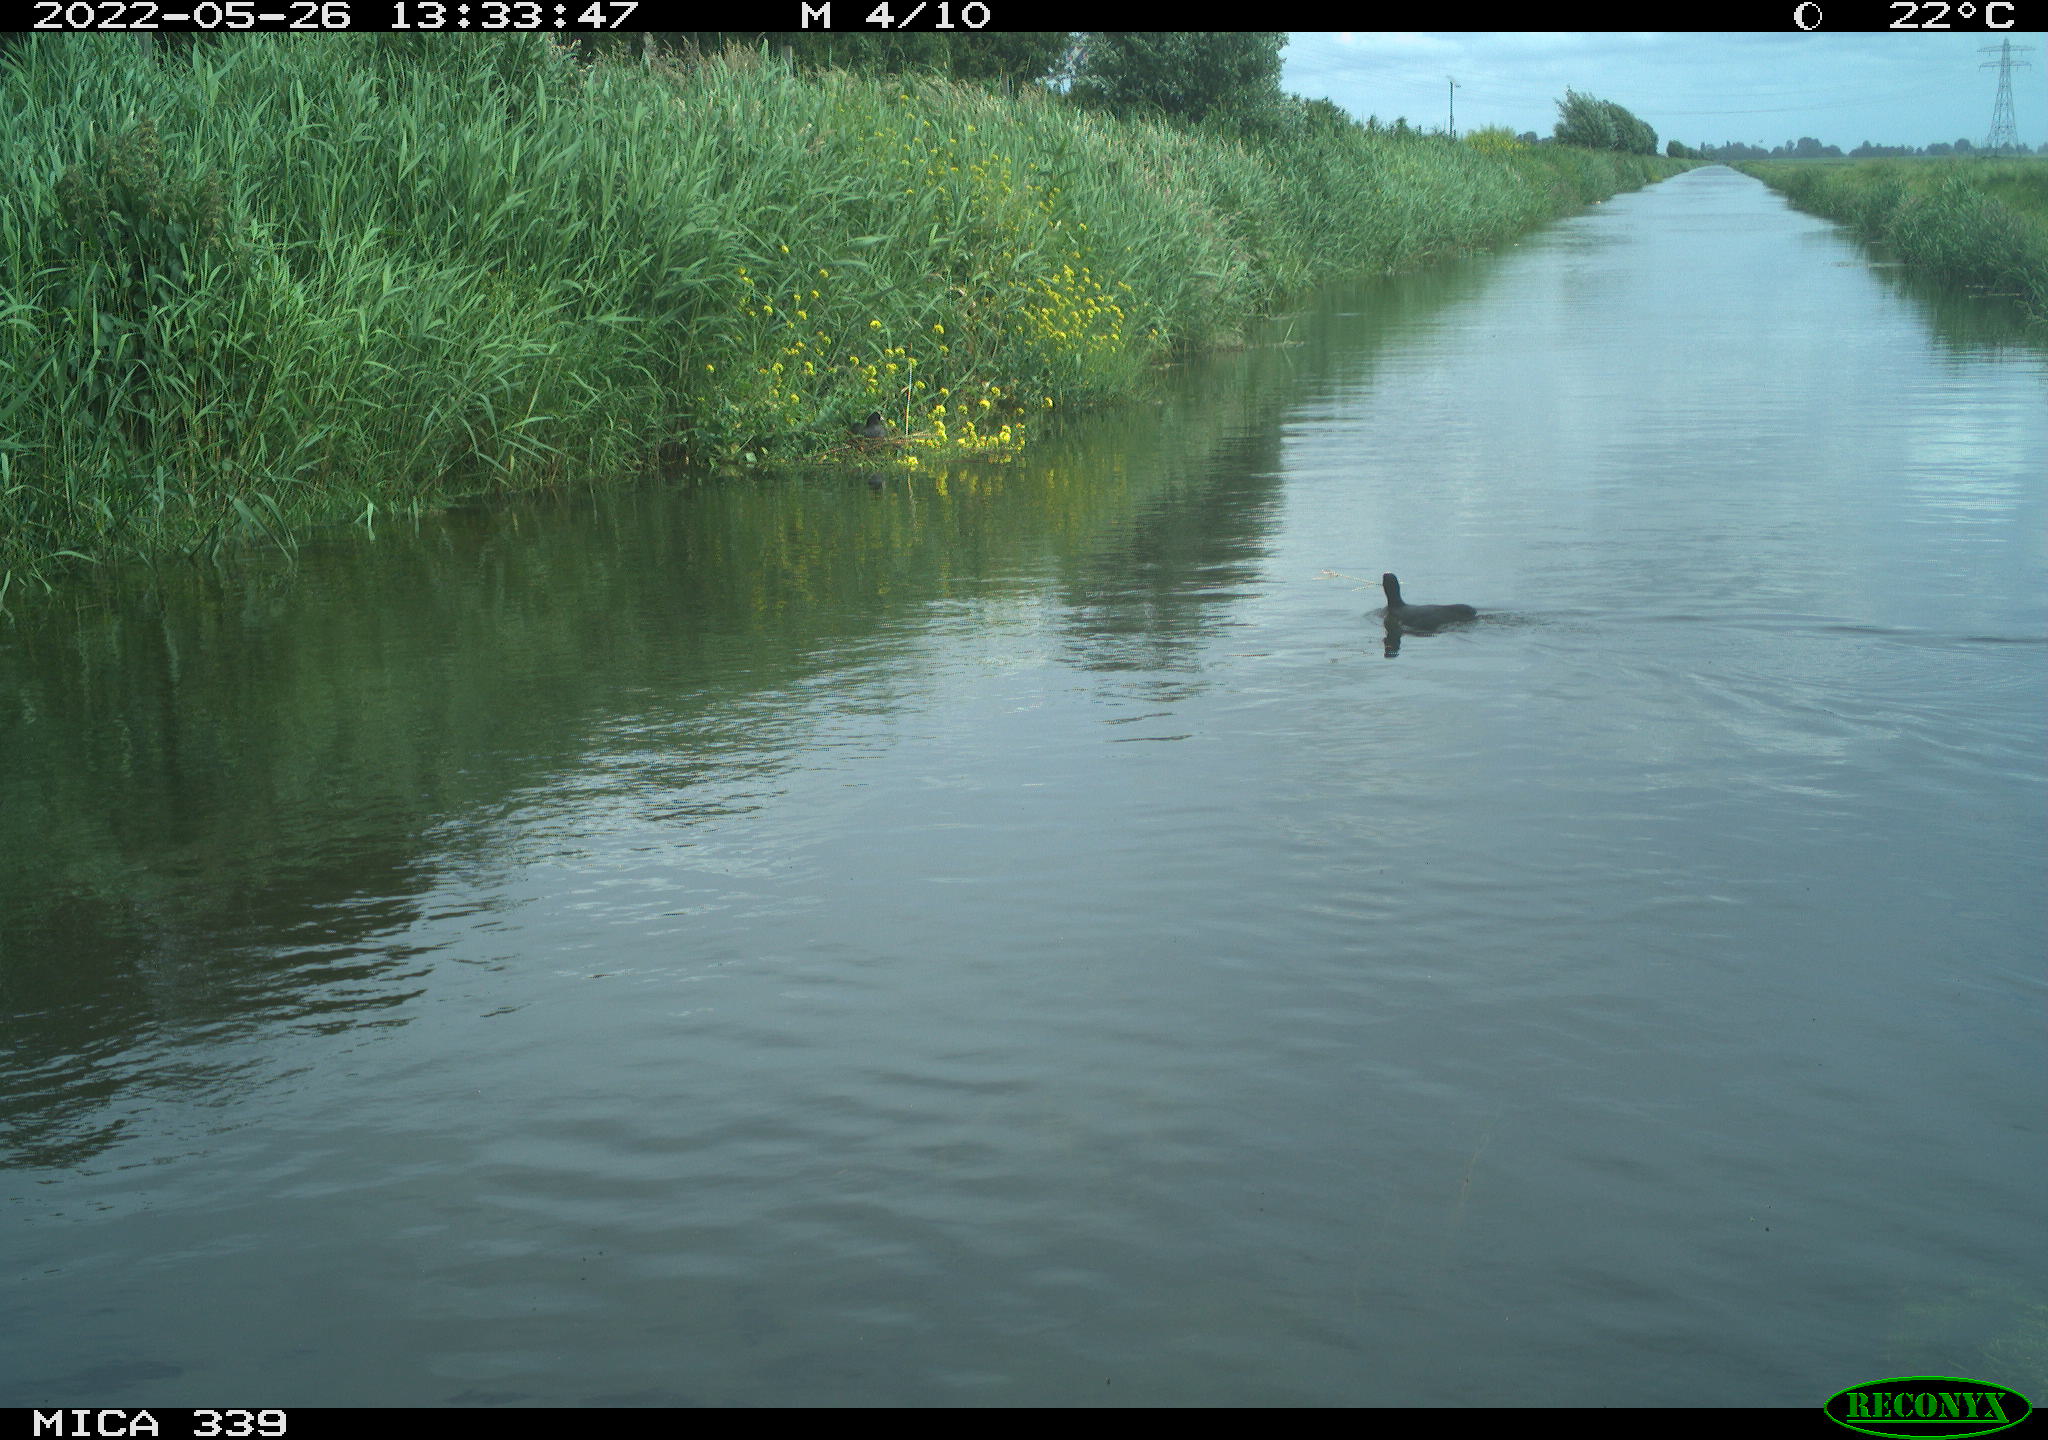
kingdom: Animalia
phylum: Chordata
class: Aves
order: Gruiformes
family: Rallidae
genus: Fulica
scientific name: Fulica atra
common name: Eurasian coot
